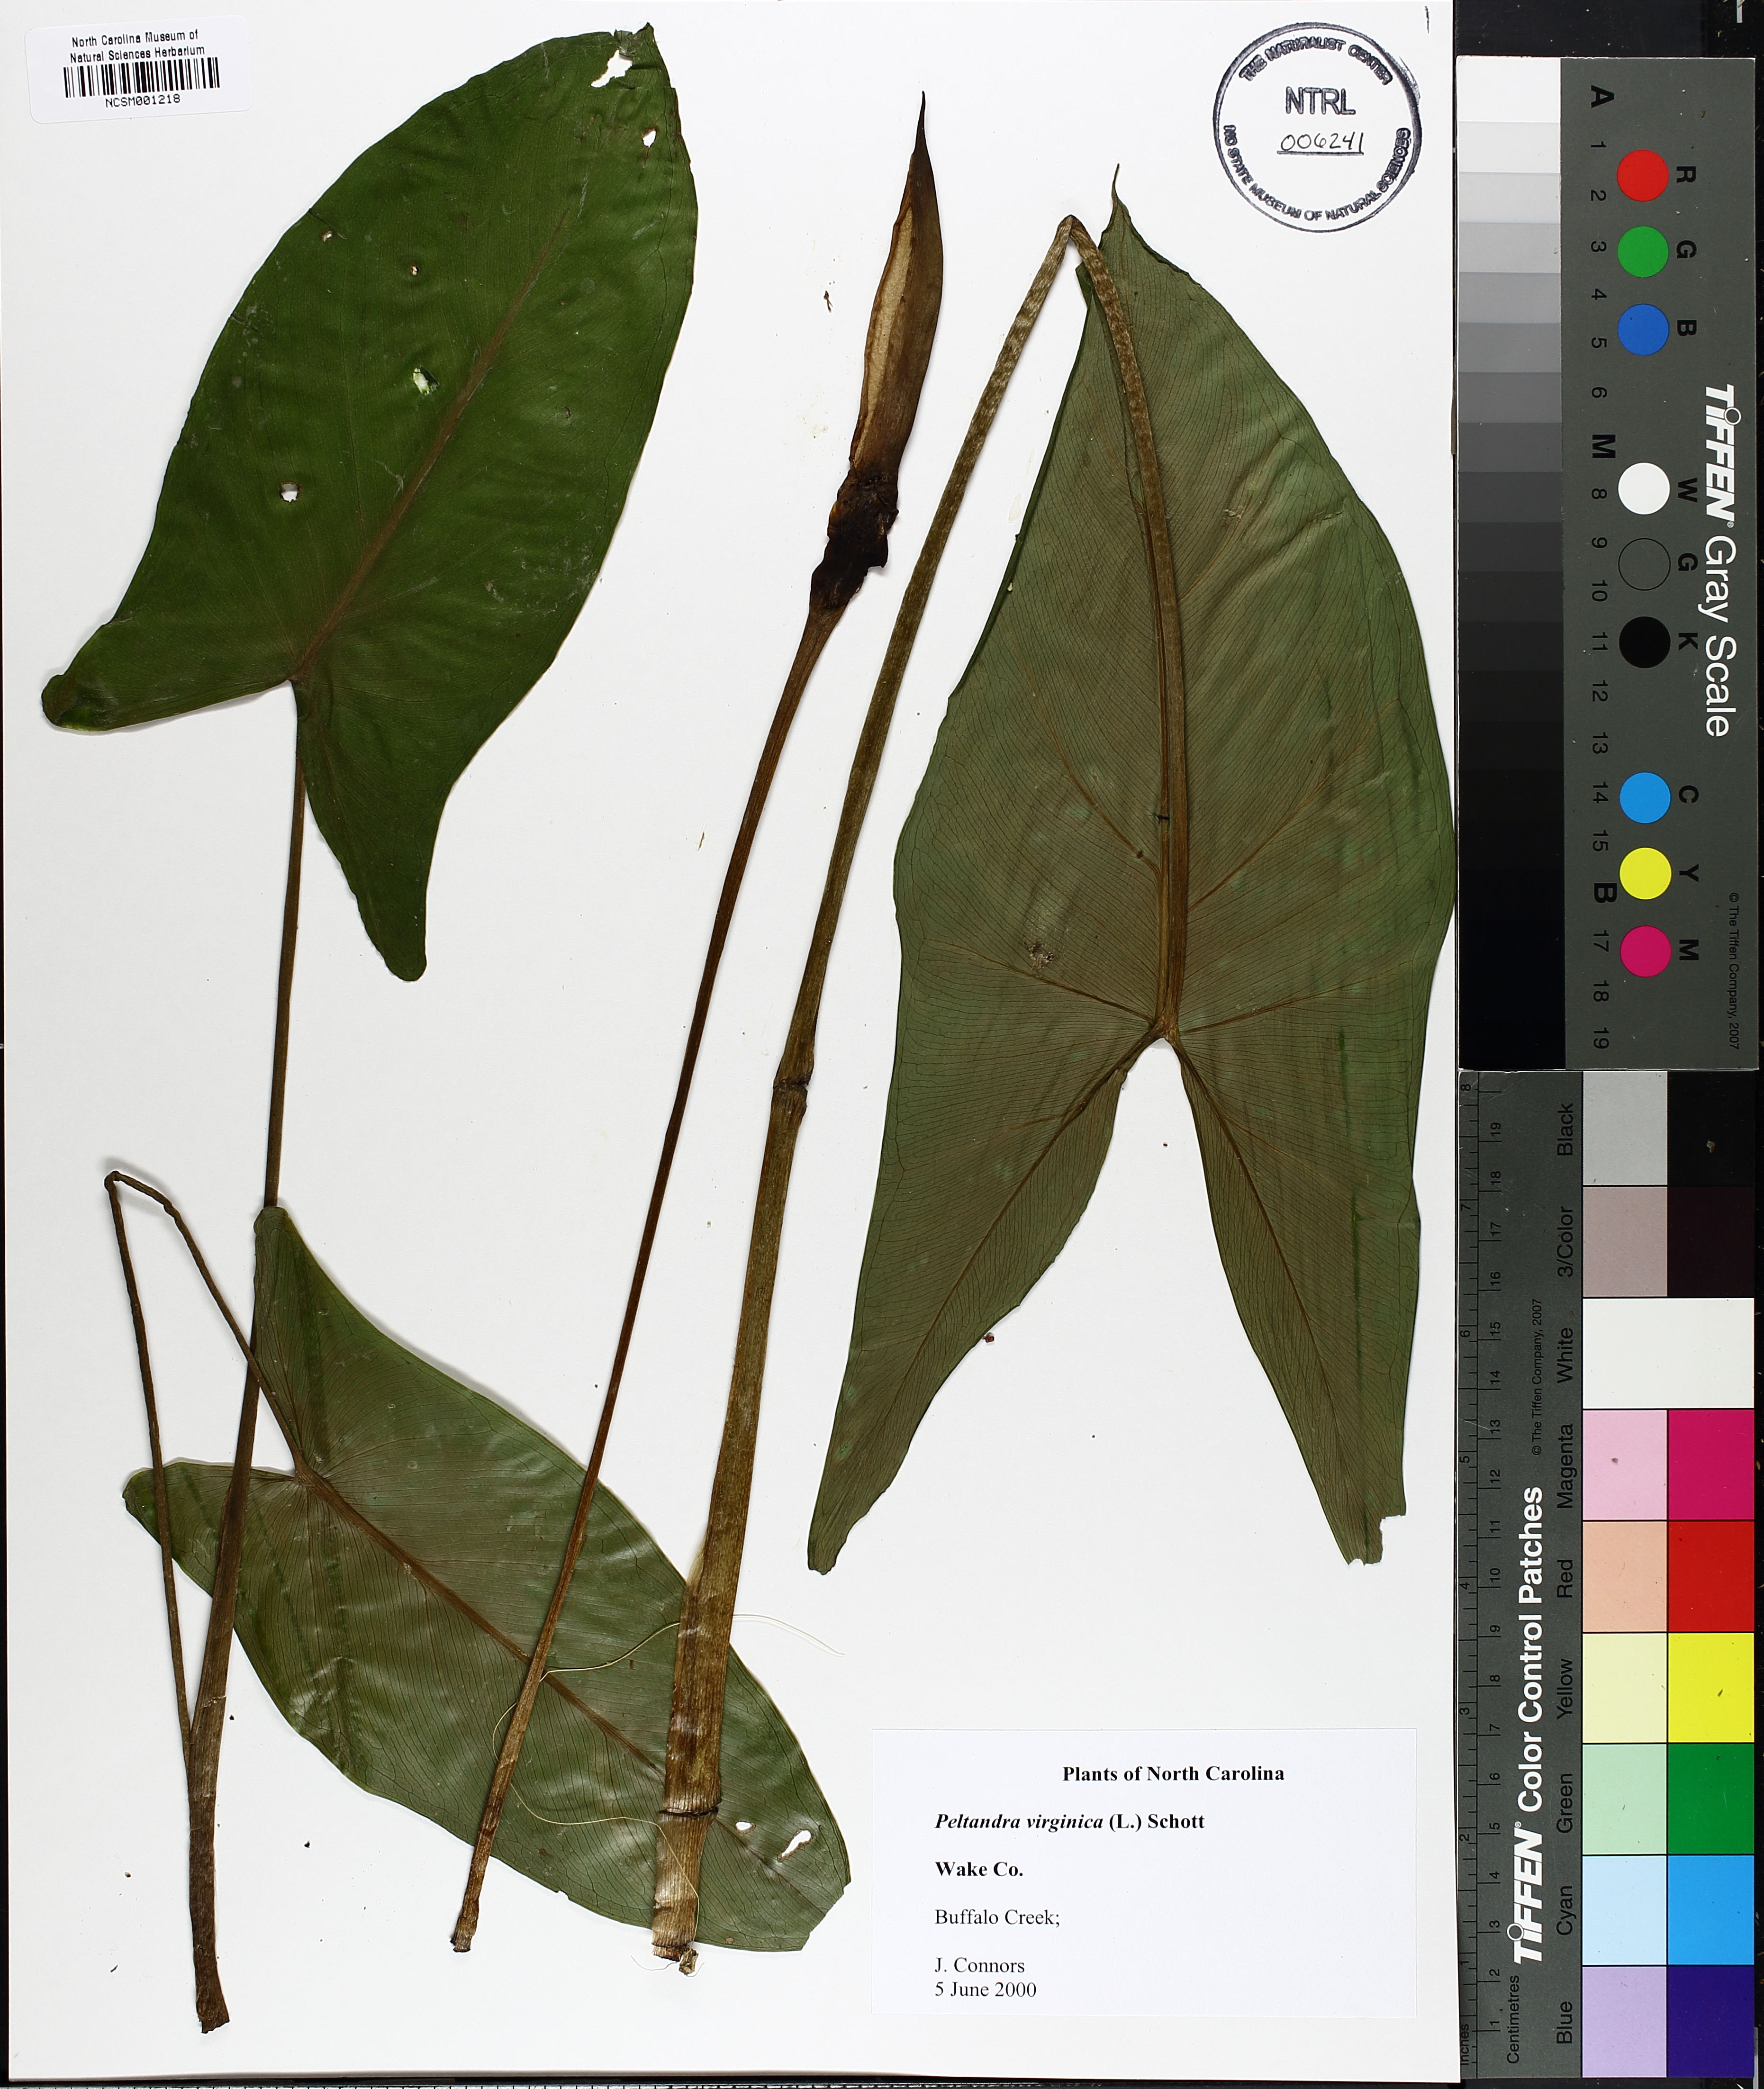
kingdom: Plantae
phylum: Tracheophyta
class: Liliopsida
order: Alismatales
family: Araceae
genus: Peltandra
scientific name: Peltandra virginica
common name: Arrow arum
